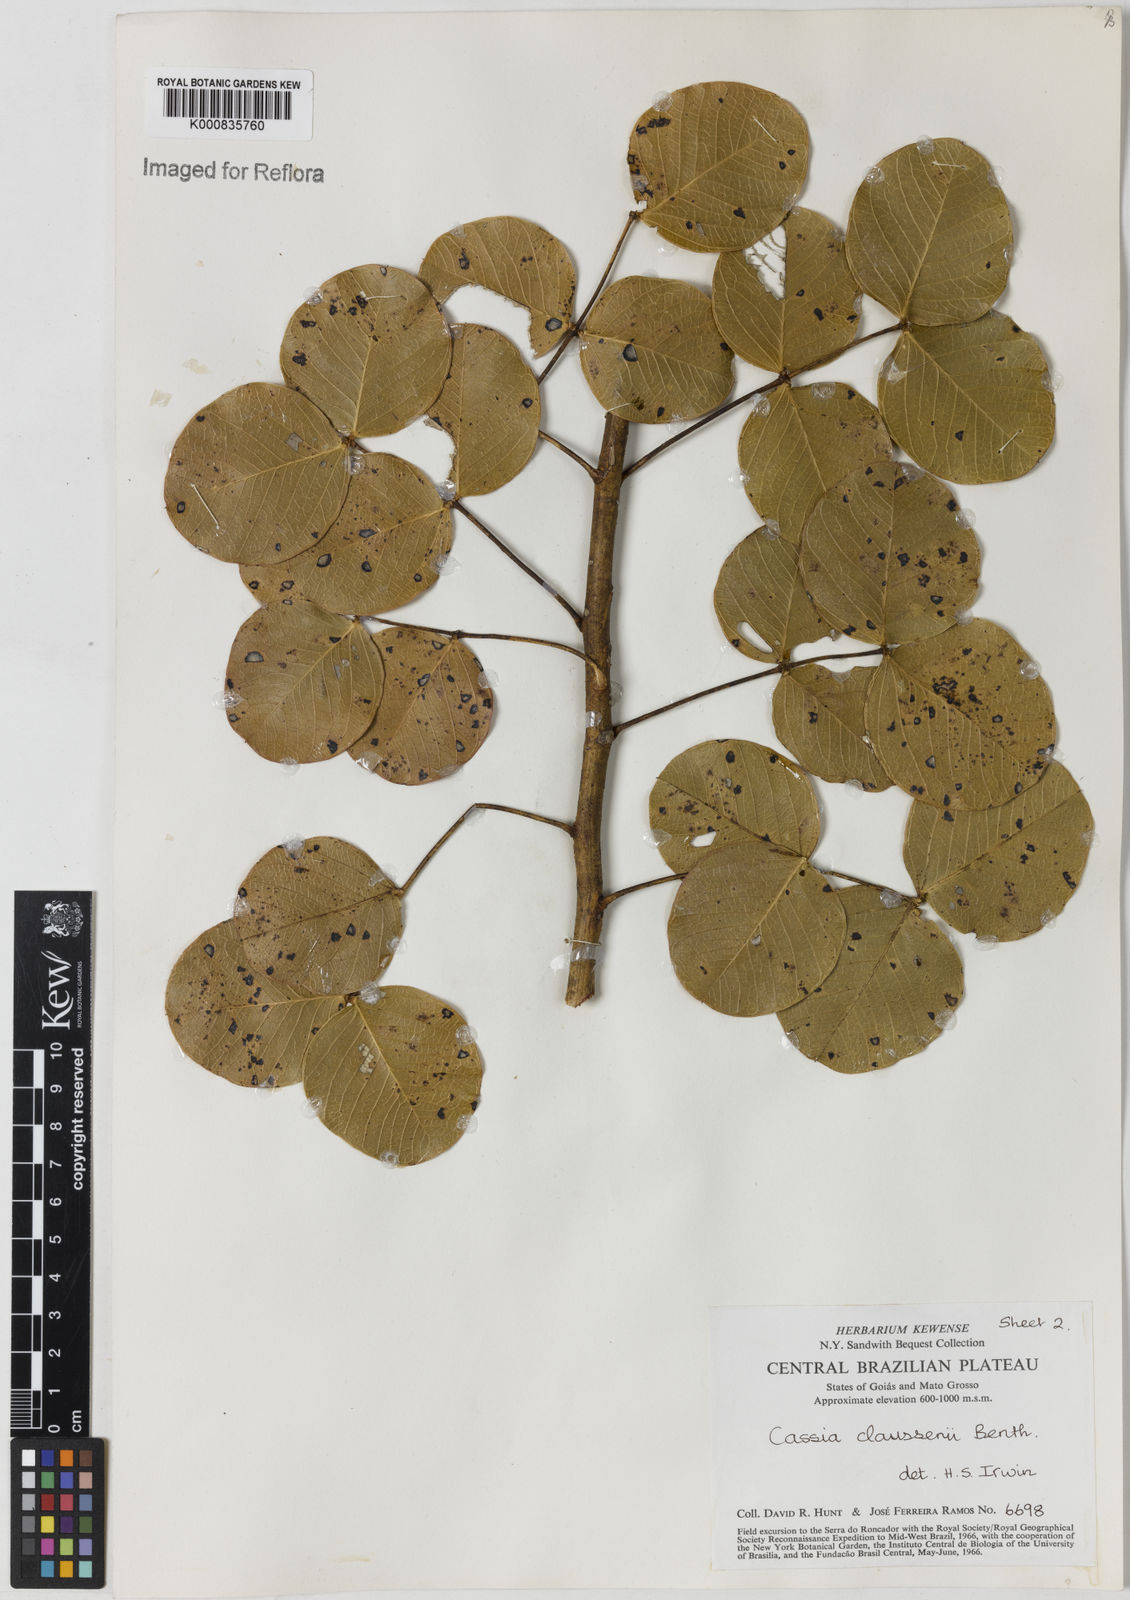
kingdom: Plantae
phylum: Tracheophyta
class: Magnoliopsida
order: Fabales
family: Fabaceae
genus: Chamaecrista
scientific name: Chamaecrista claussenii
